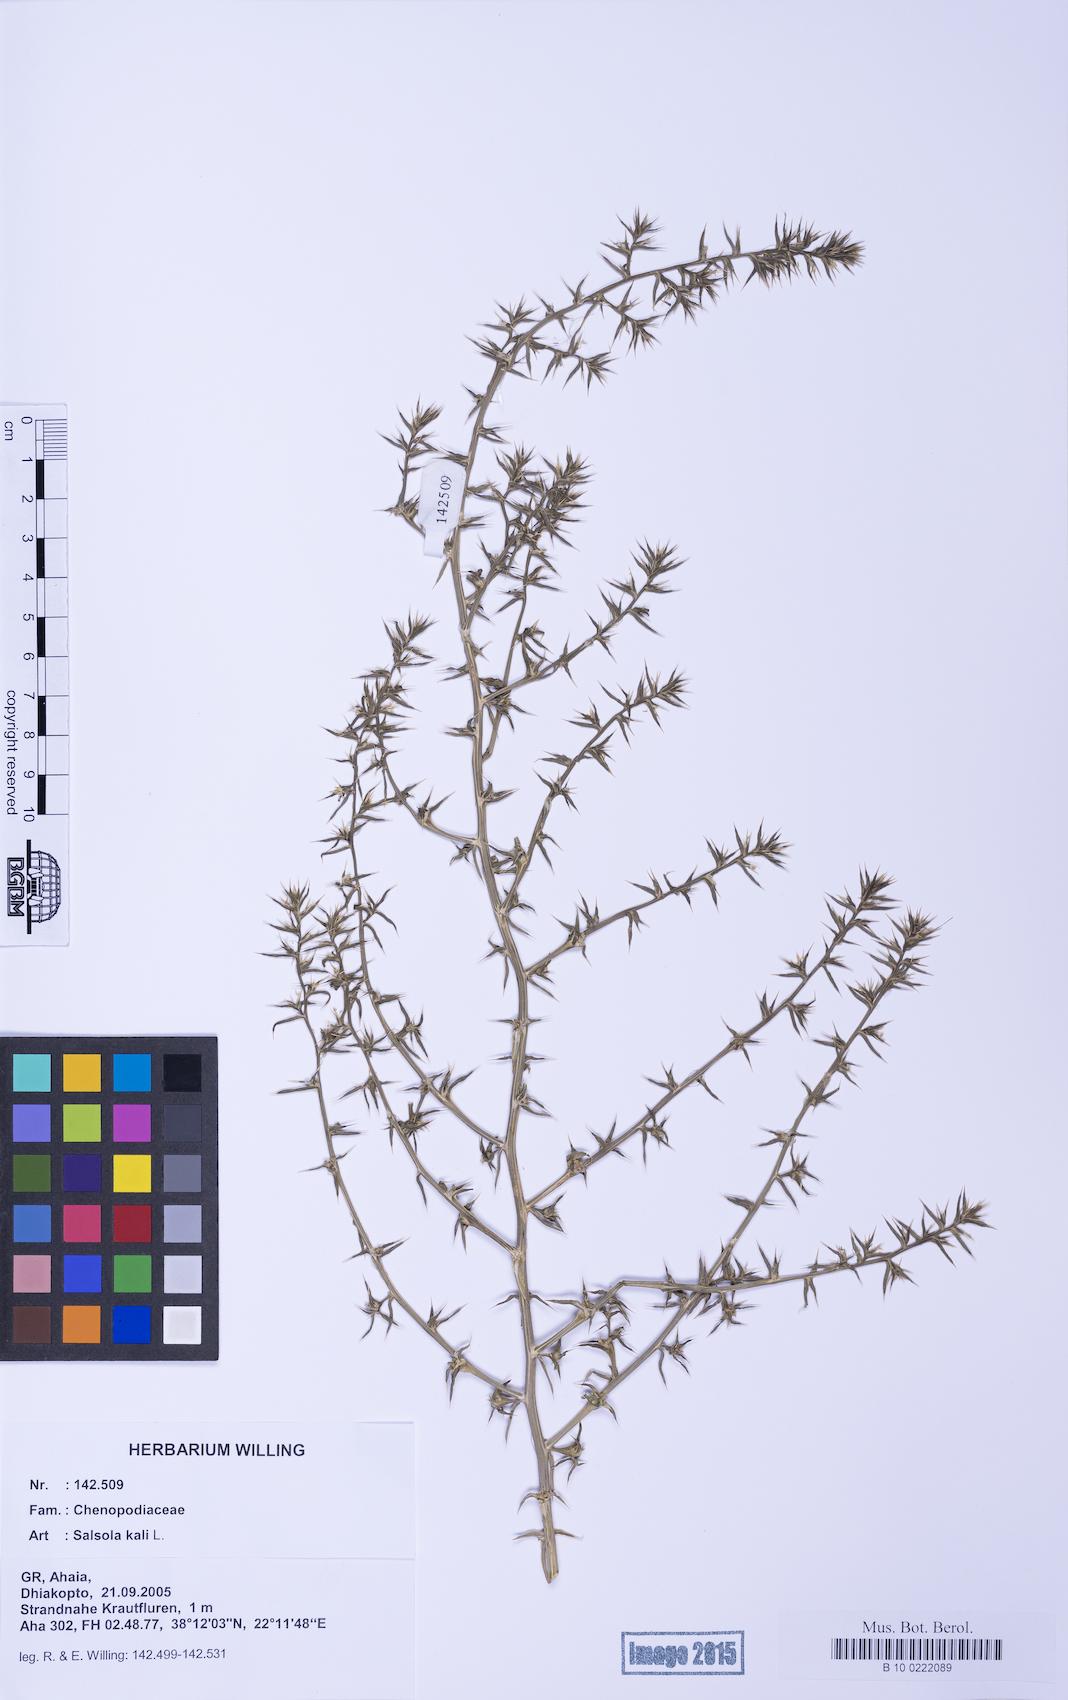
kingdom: Plantae
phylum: Tracheophyta
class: Magnoliopsida
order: Caryophyllales
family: Amaranthaceae
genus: Salsola
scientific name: Salsola kali
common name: Saltwort
